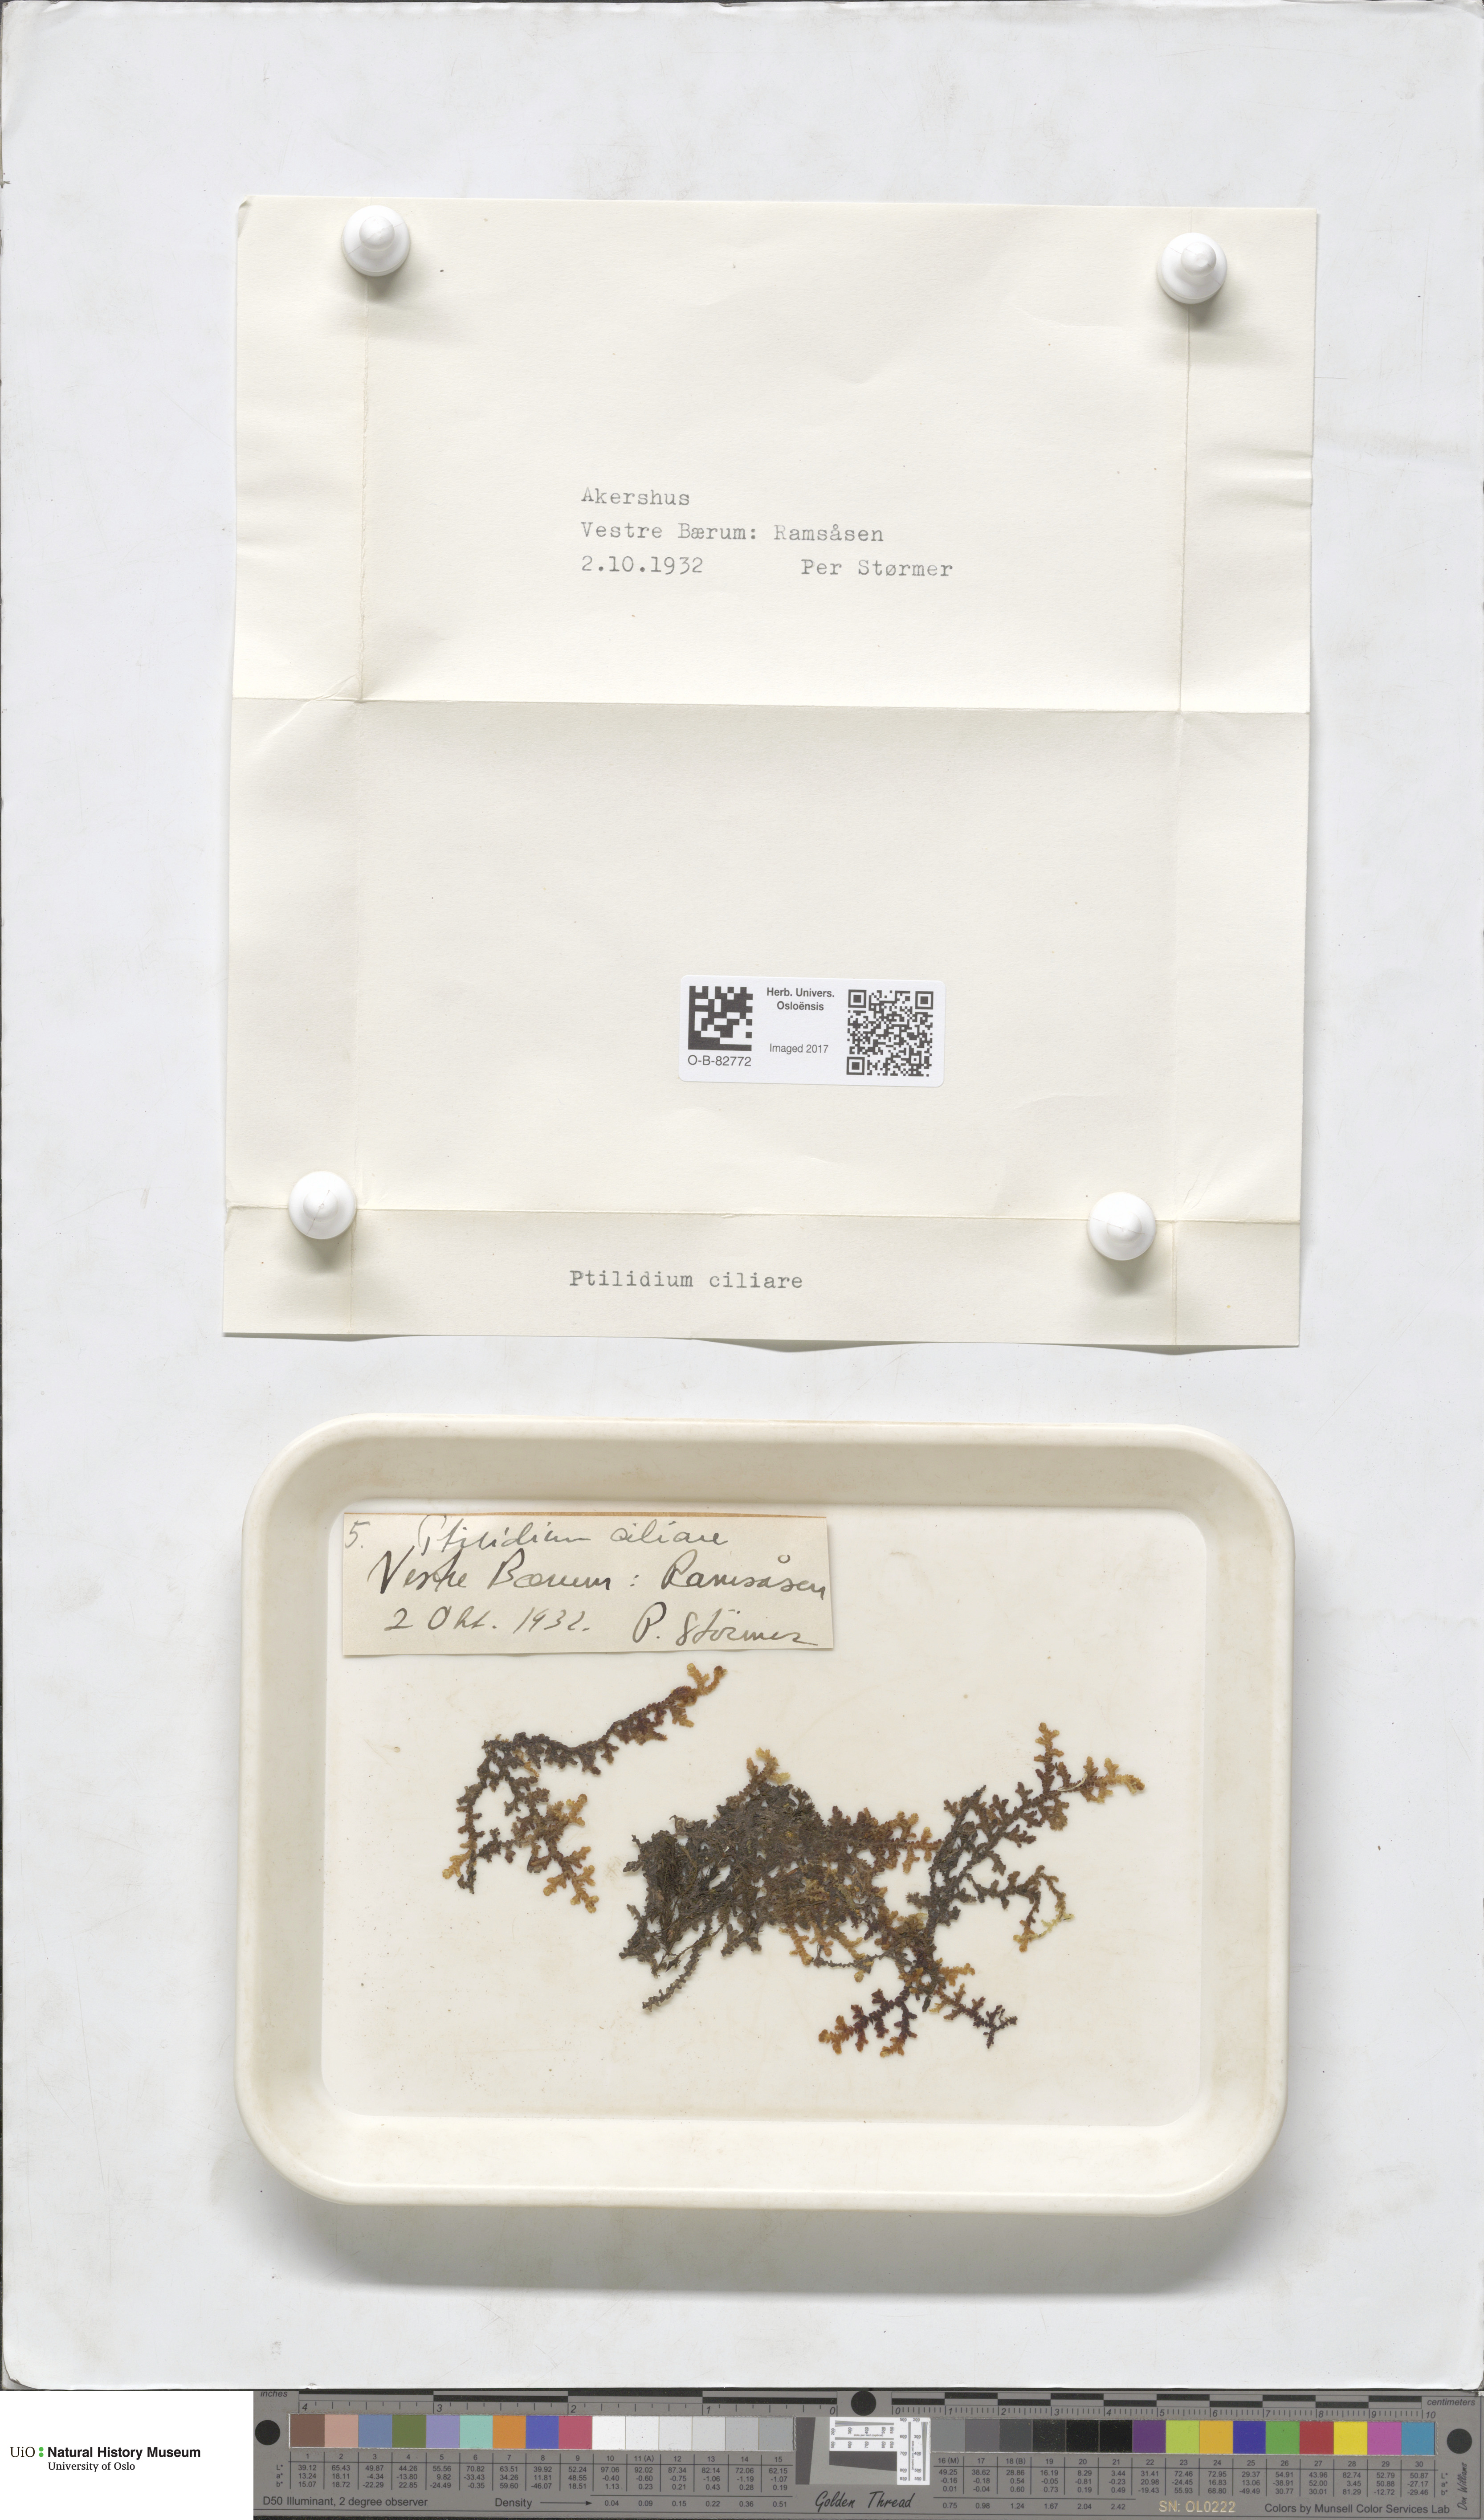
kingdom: Plantae
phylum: Marchantiophyta
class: Jungermanniopsida
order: Ptilidiales
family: Ptilidiaceae
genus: Ptilidium
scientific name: Ptilidium ciliare
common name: Ciliate fringewort
